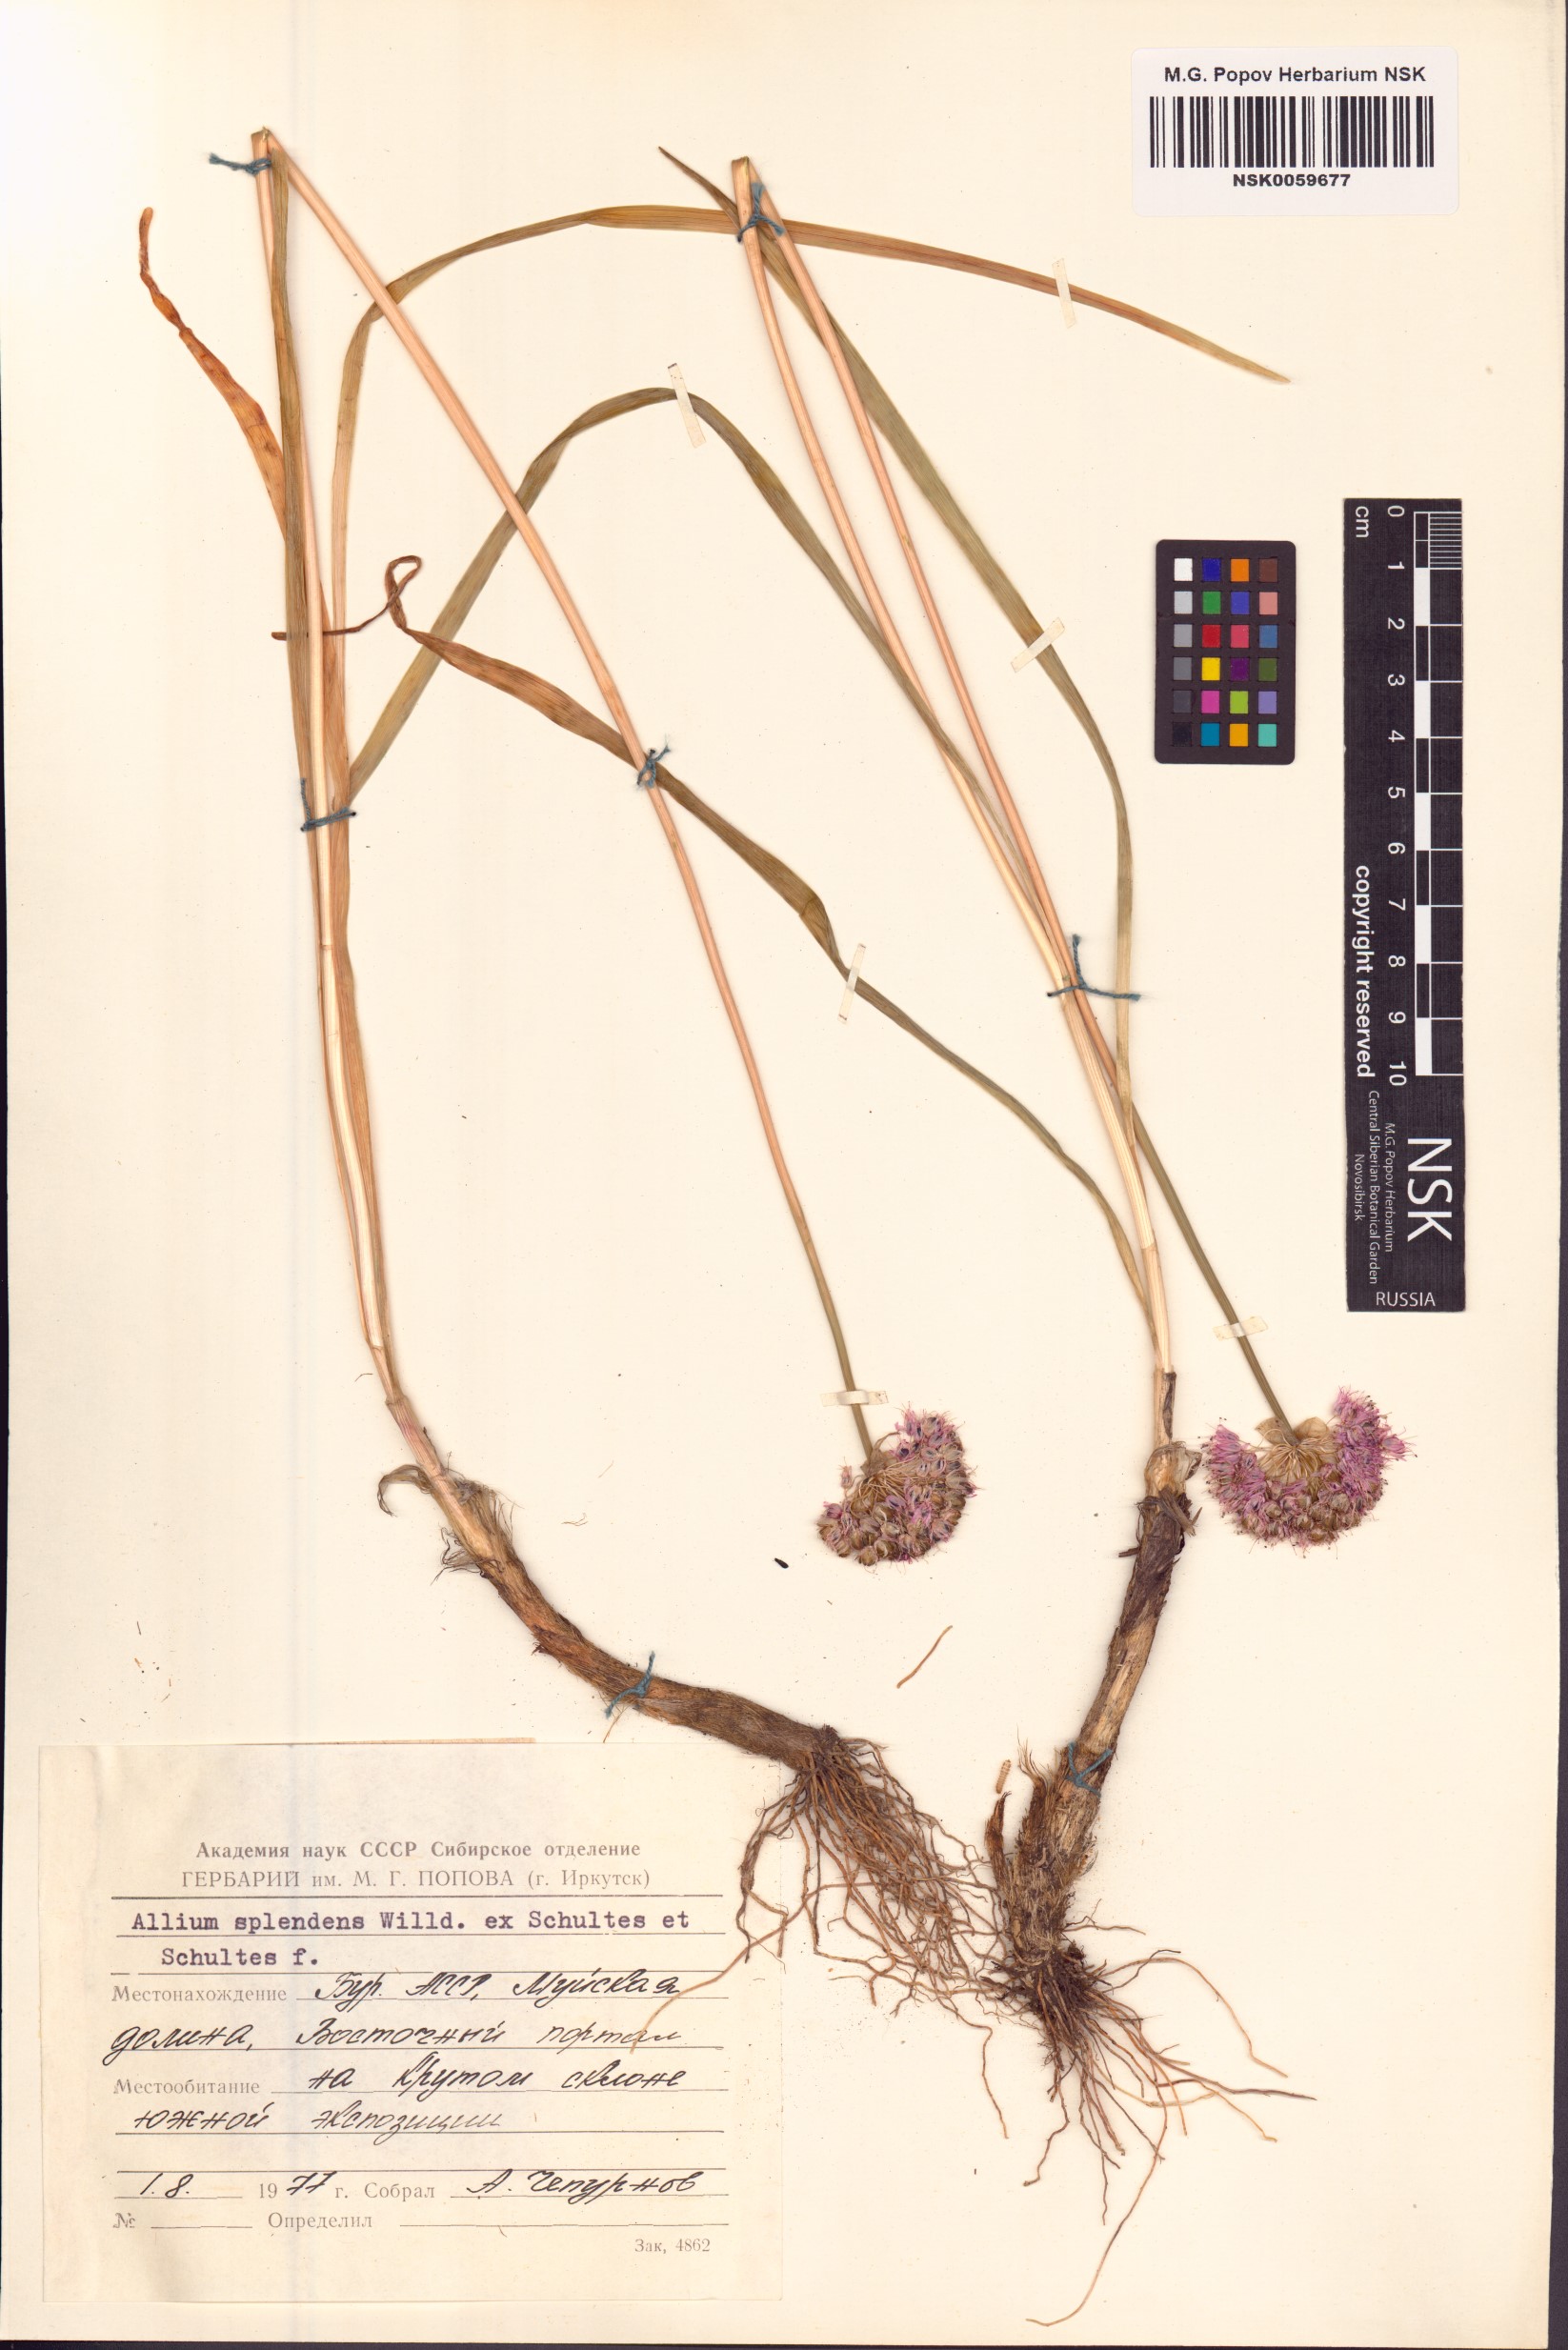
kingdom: Plantae
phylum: Tracheophyta
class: Liliopsida
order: Asparagales
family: Amaryllidaceae
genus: Allium
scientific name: Allium splendens
